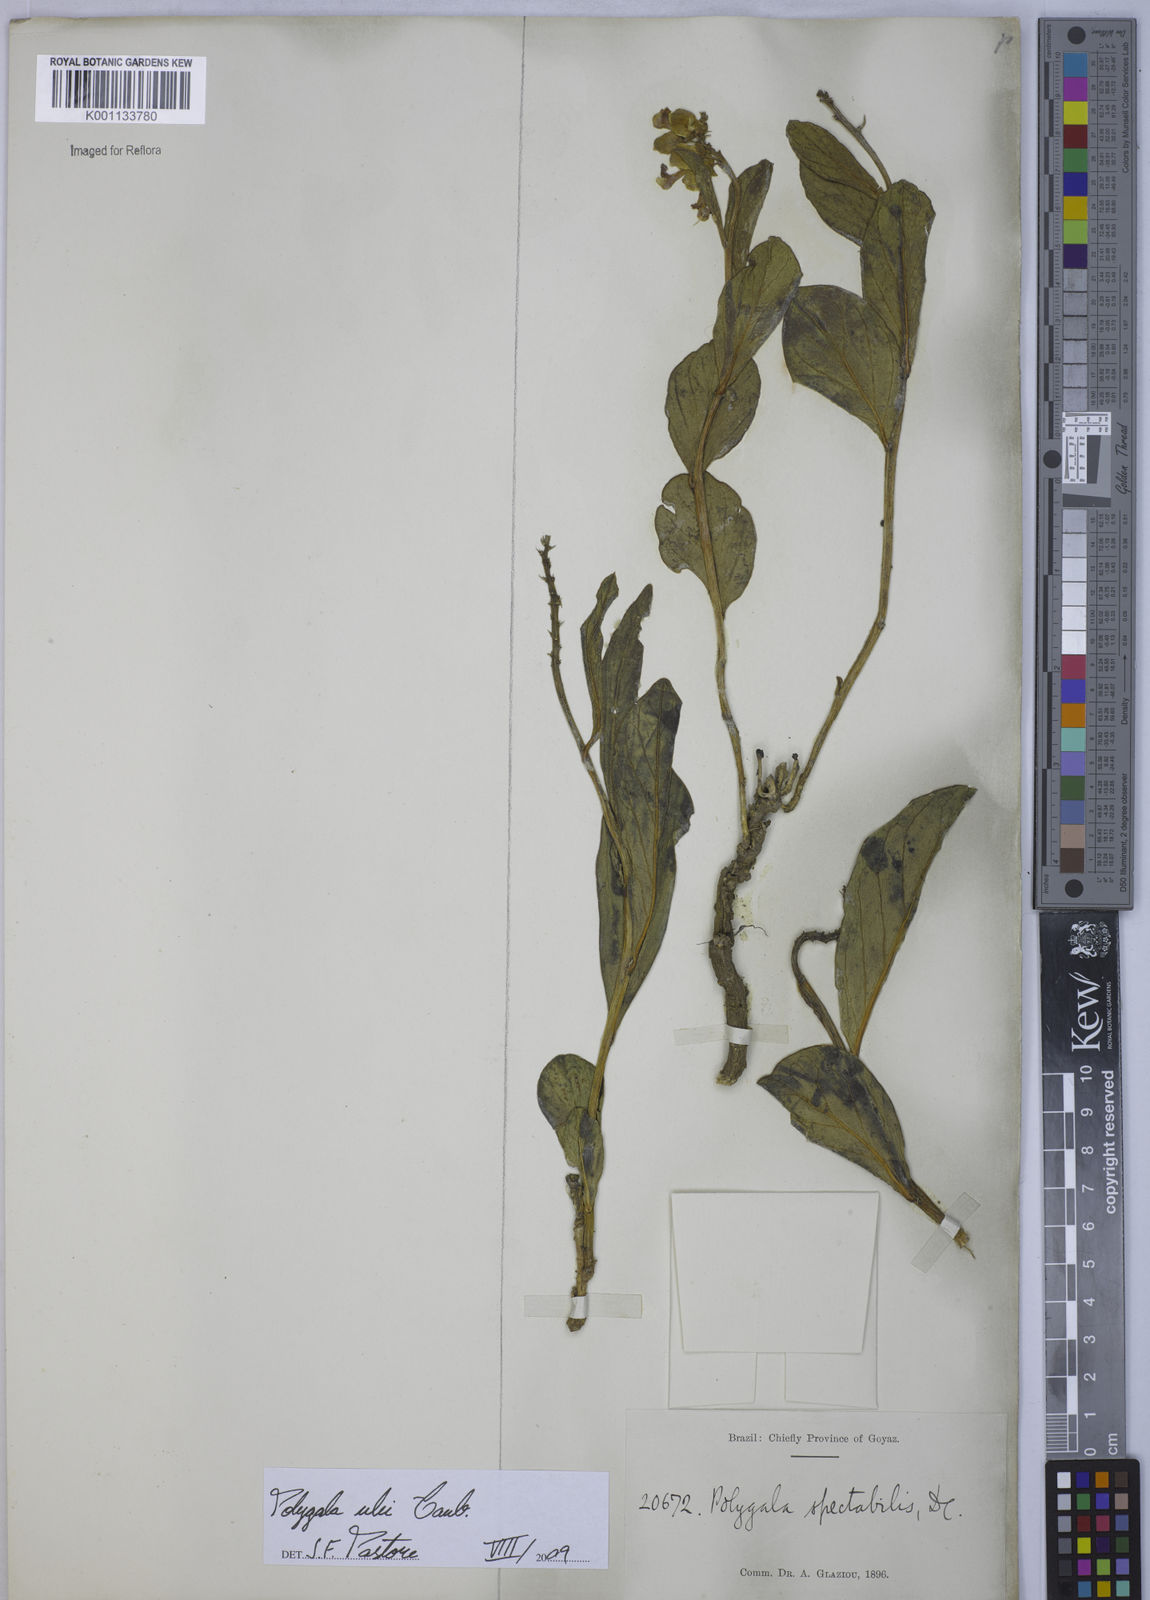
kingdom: Plantae
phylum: Tracheophyta
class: Magnoliopsida
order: Fabales
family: Polygalaceae
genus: Caamembeca
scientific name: Caamembeca ulei
